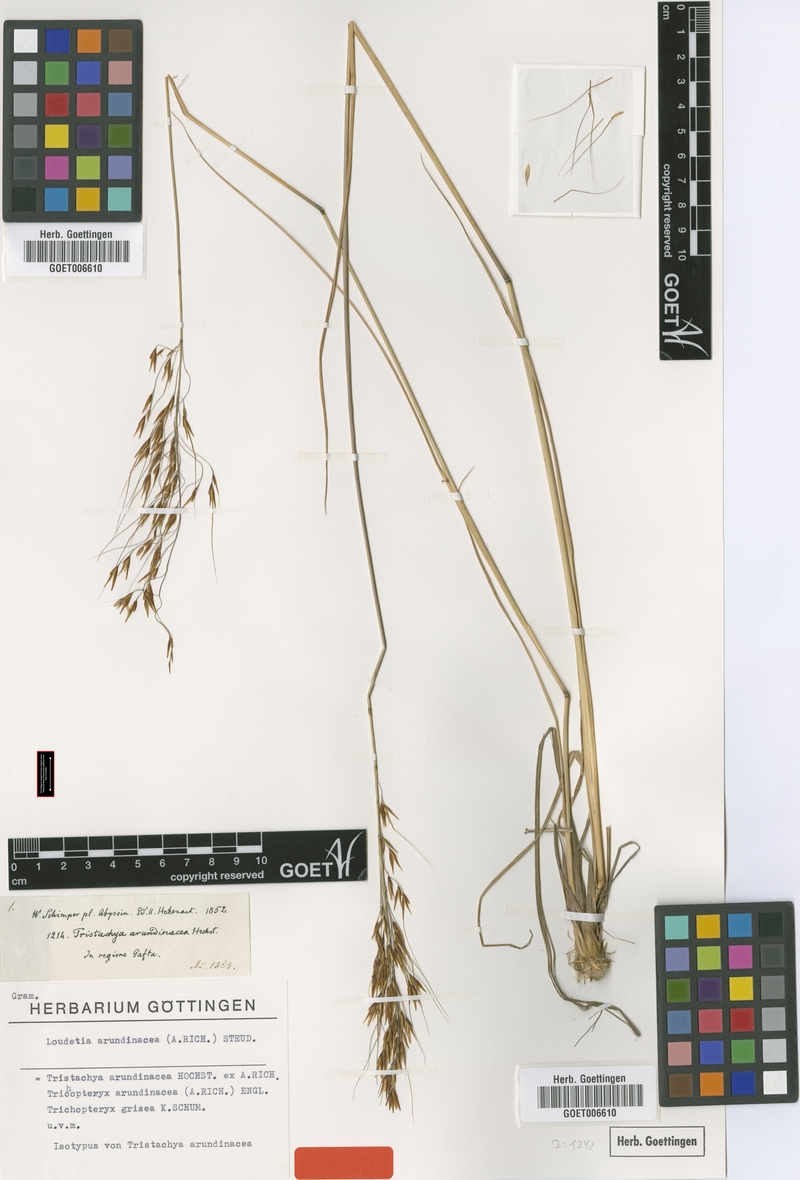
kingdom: Plantae
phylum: Tracheophyta
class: Liliopsida
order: Poales
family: Poaceae
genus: Loudetia
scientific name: Loudetia arundinacea
